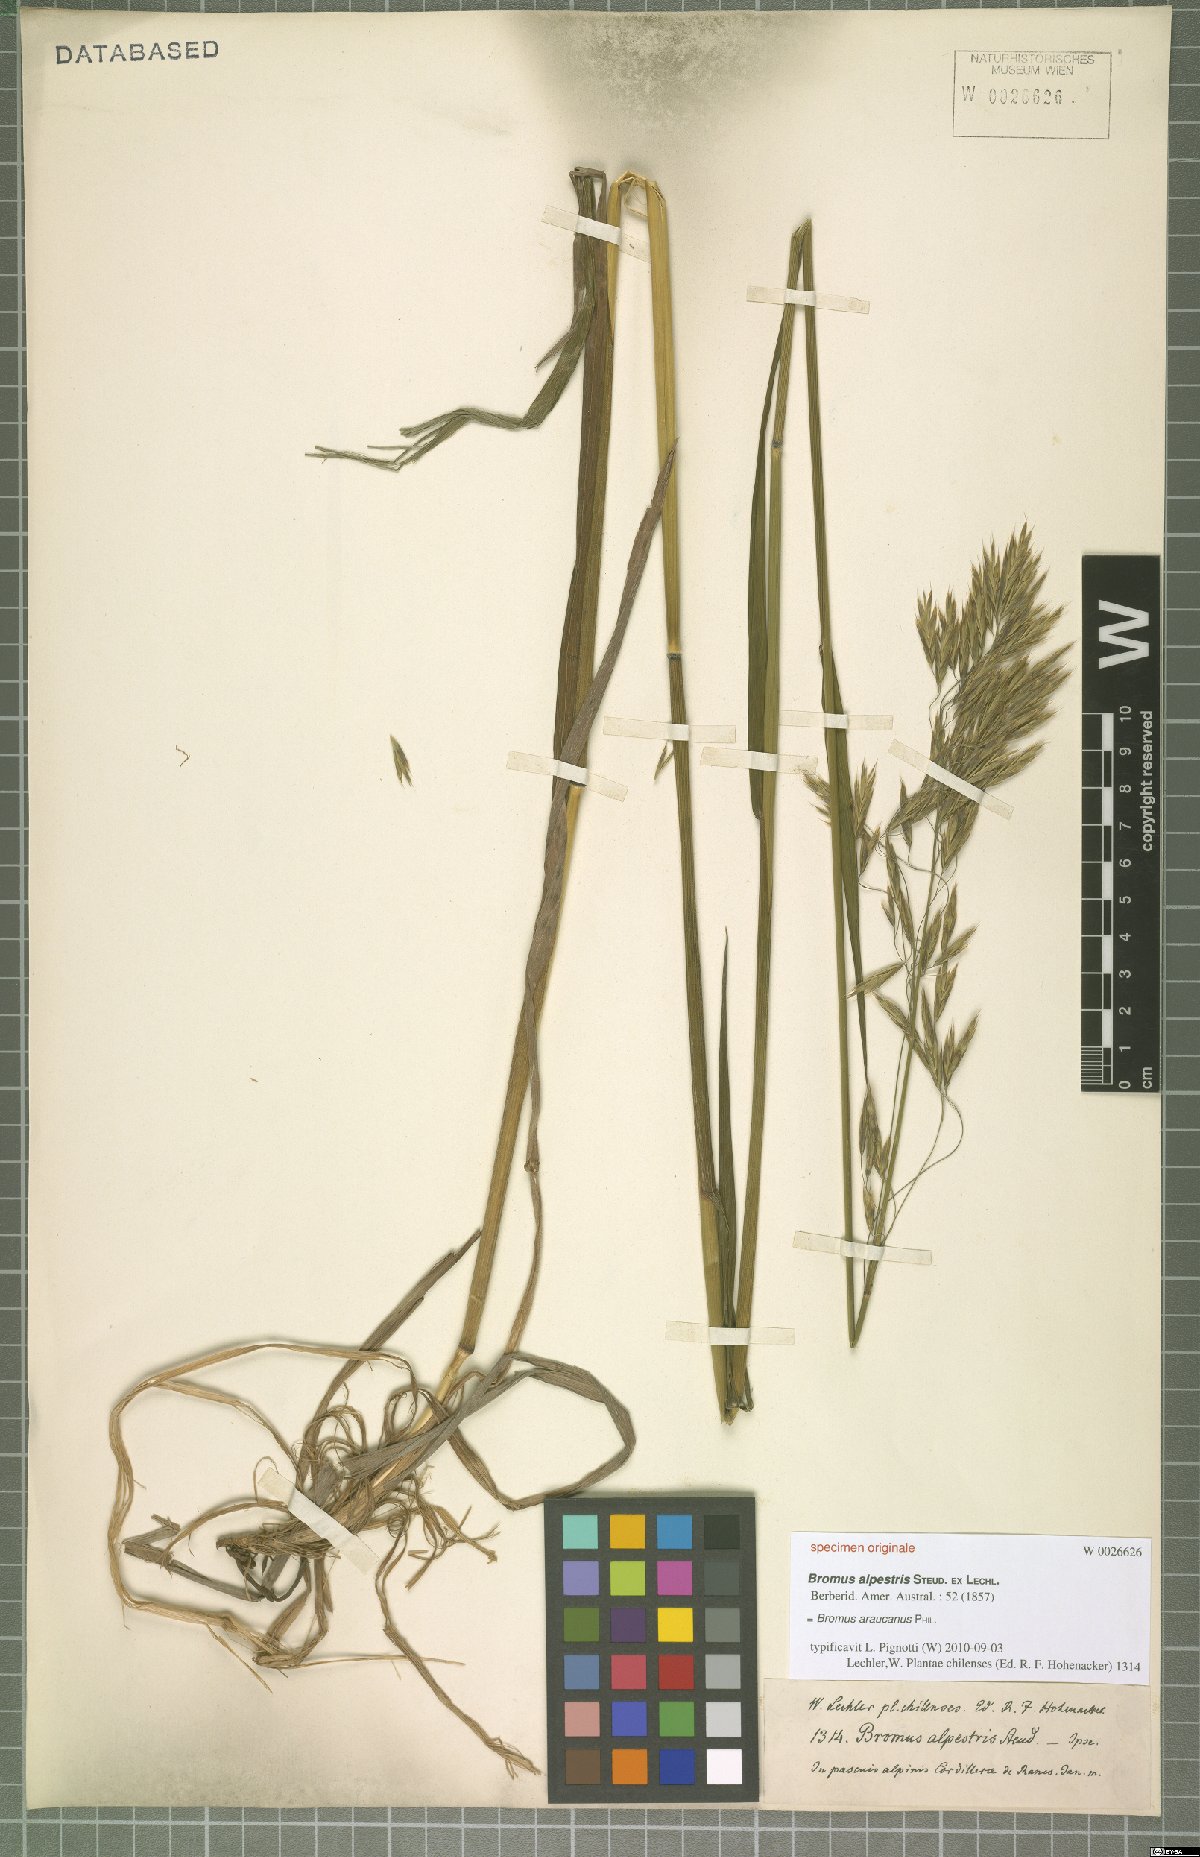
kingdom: Plantae
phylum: Tracheophyta
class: Liliopsida
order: Poales
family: Poaceae
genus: Bromus
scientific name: Bromus araucanus
